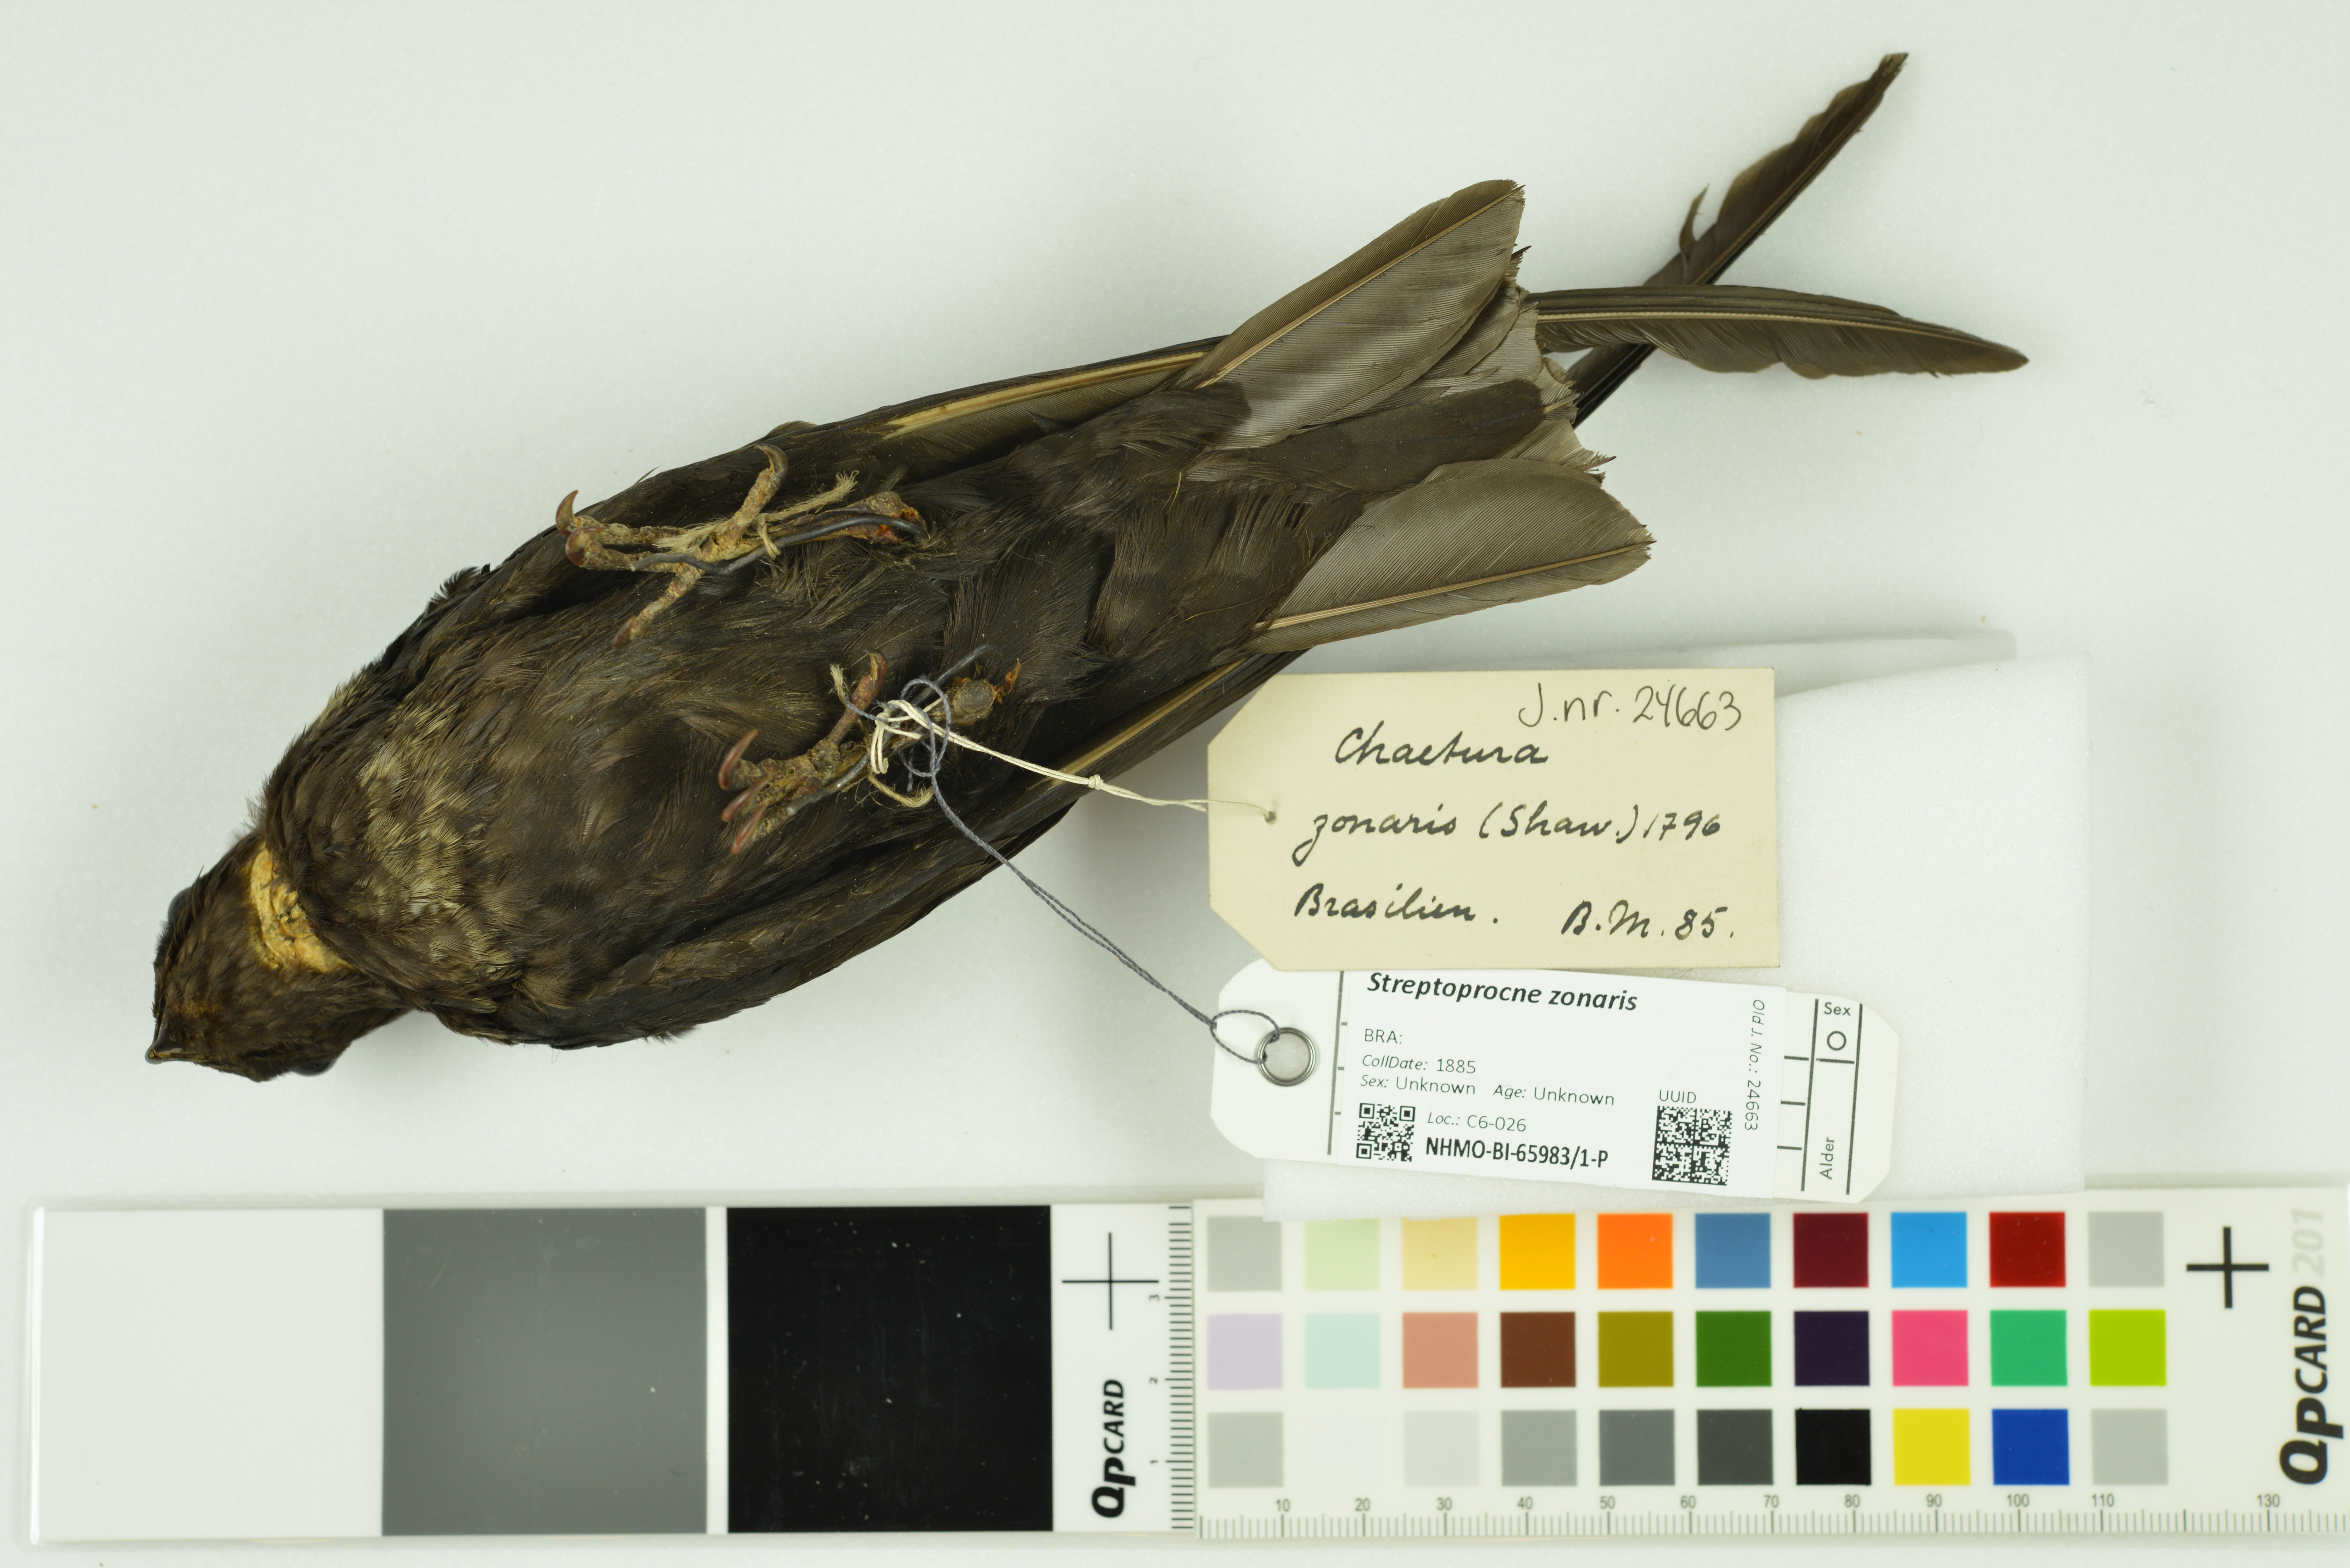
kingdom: Animalia
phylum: Chordata
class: Aves
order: Apodiformes
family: Apodidae
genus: Streptoprocne
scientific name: Streptoprocne zonaris
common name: White-collared swift
